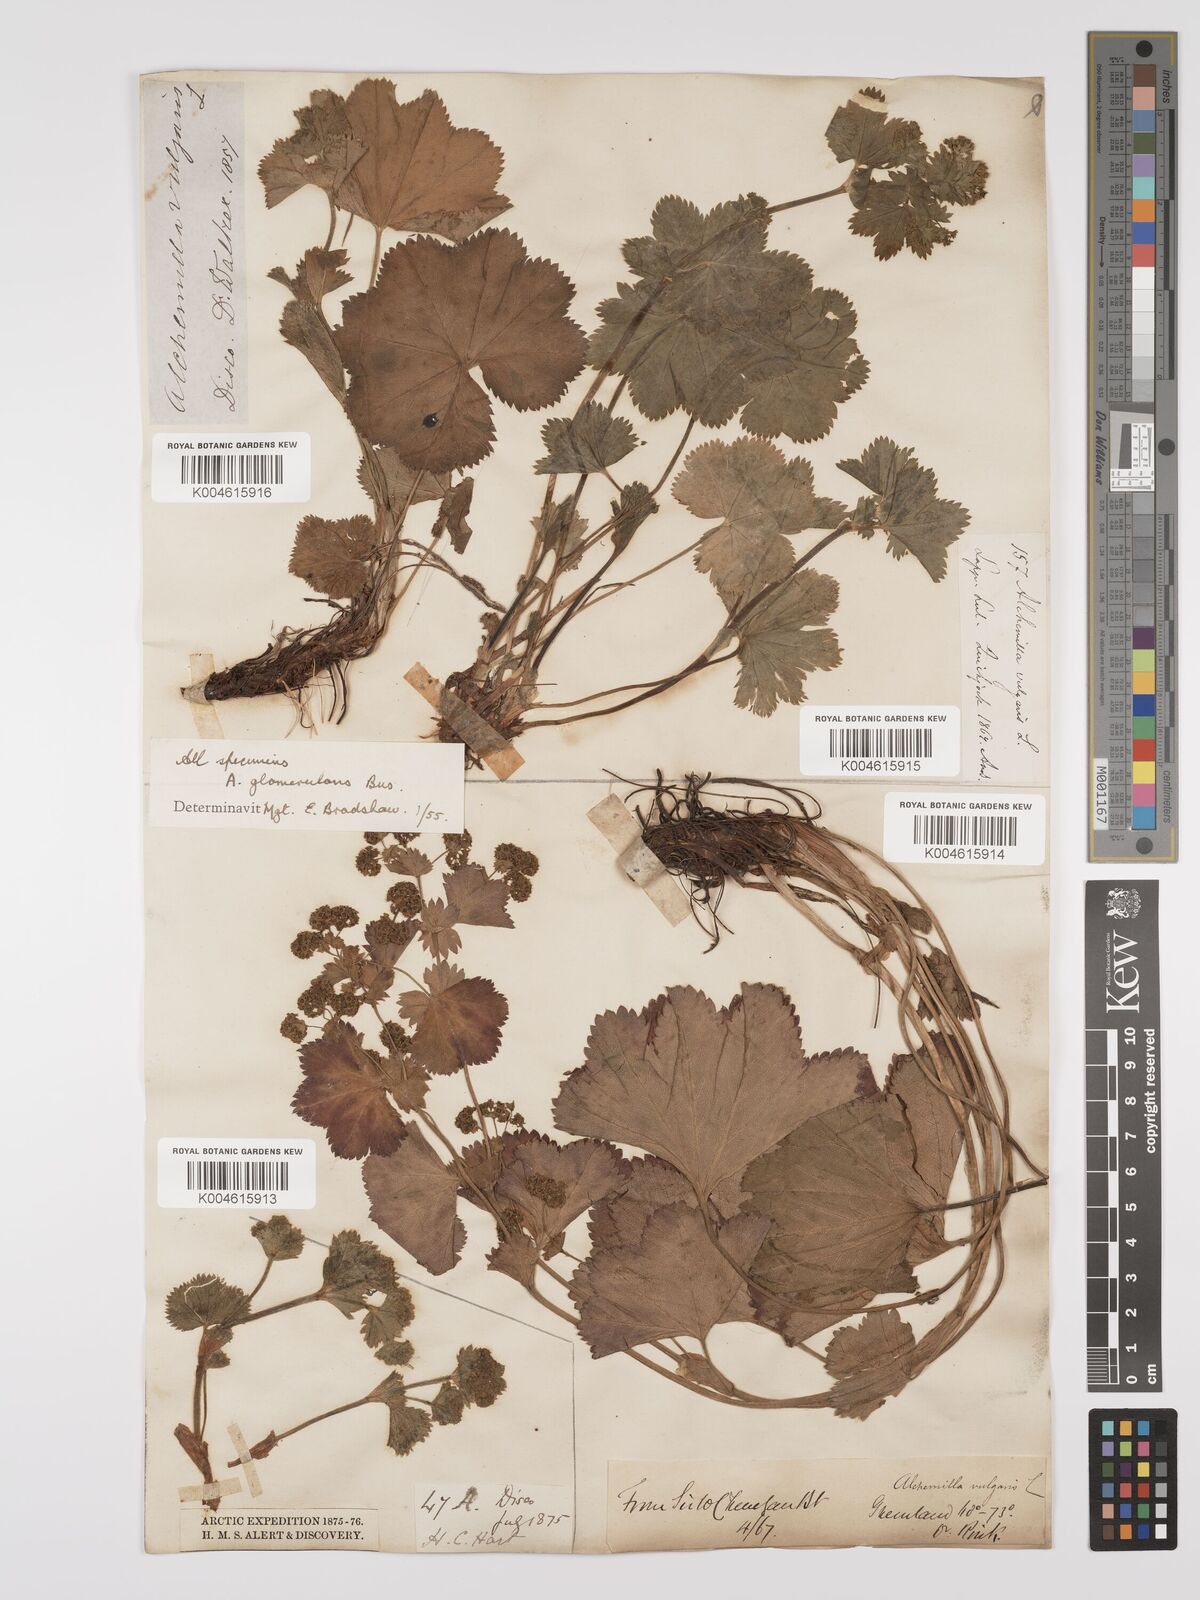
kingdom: Plantae
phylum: Tracheophyta
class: Magnoliopsida
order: Rosales
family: Rosaceae
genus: Alchemilla
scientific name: Alchemilla vulgaris
